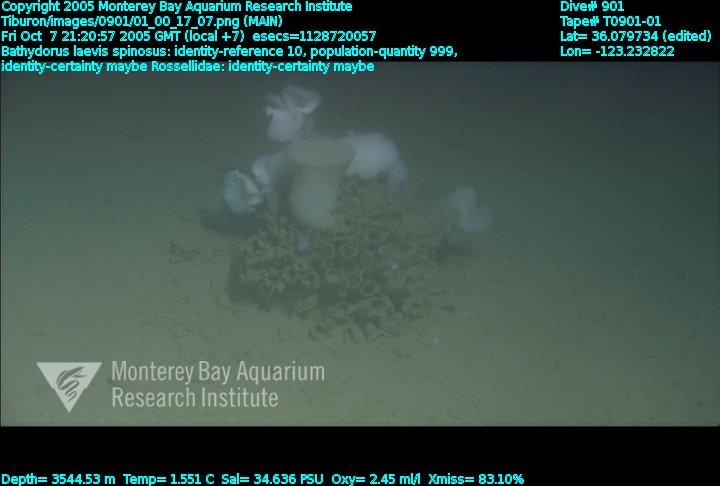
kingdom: Animalia
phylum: Porifera
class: Hexactinellida
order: Lyssacinosida
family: Rossellidae
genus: Bathydorus
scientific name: Bathydorus spinosus
